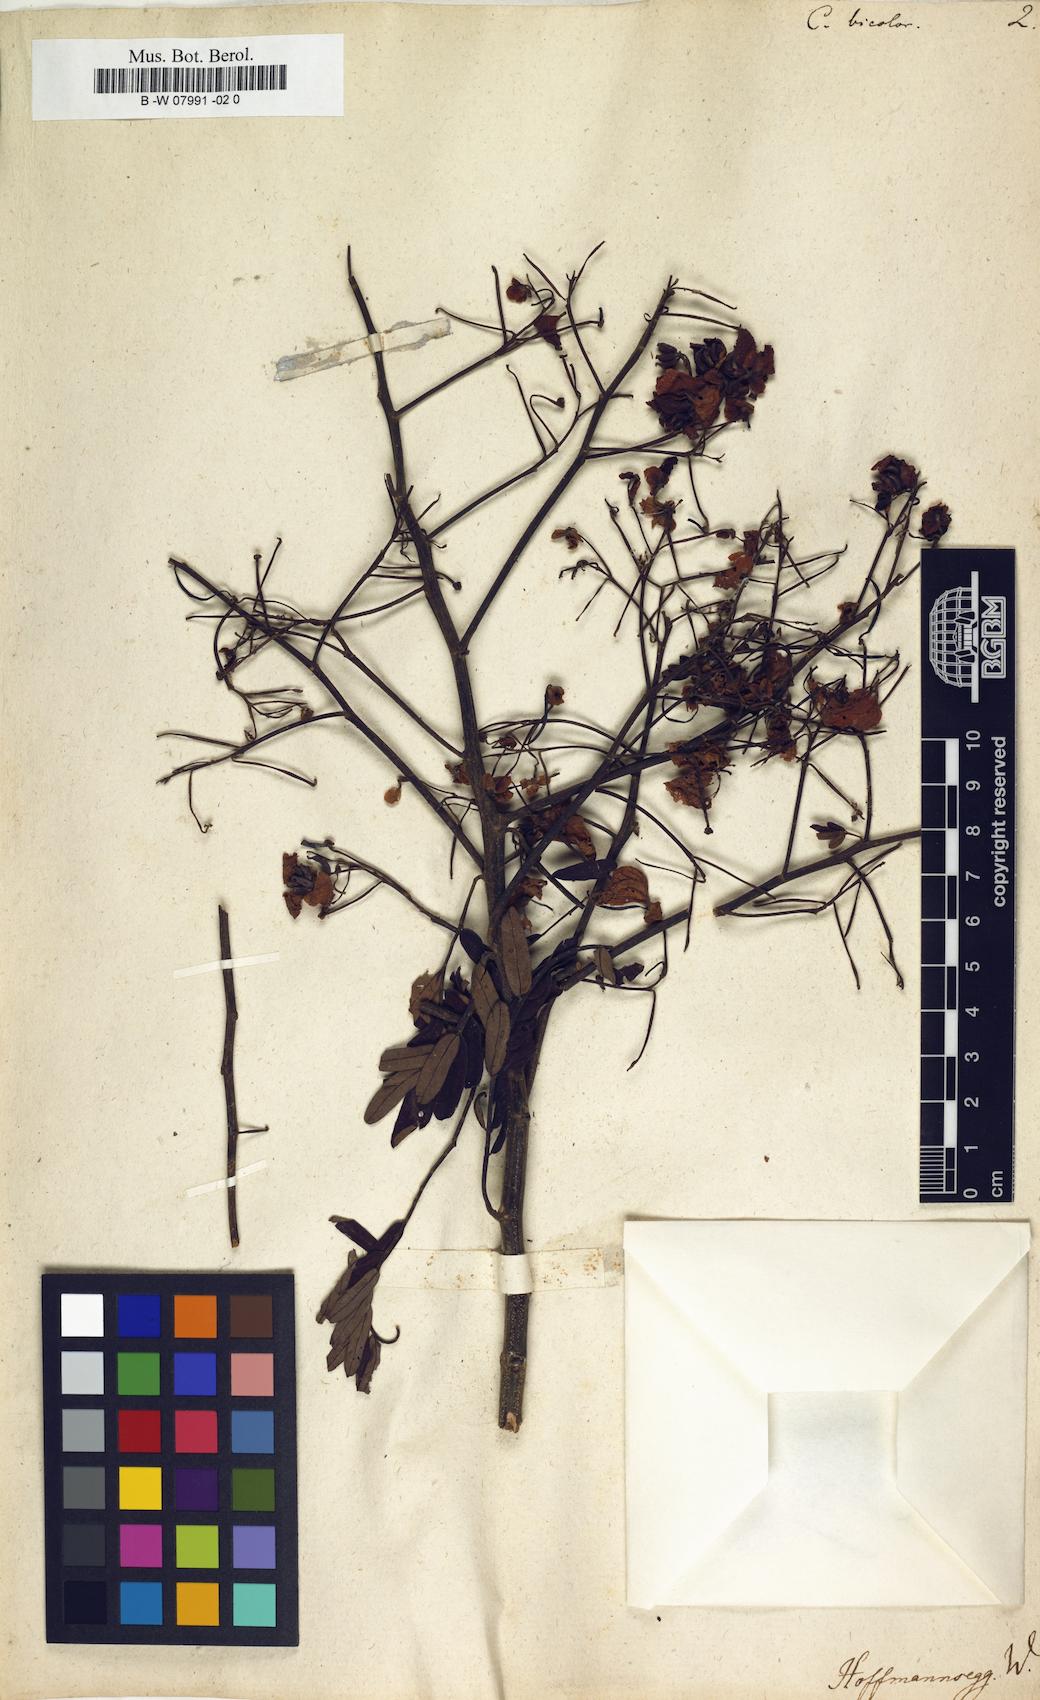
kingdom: Plantae
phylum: Tracheophyta
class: Magnoliopsida
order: Fabales
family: Fabaceae
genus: Cassia
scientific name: Cassia
